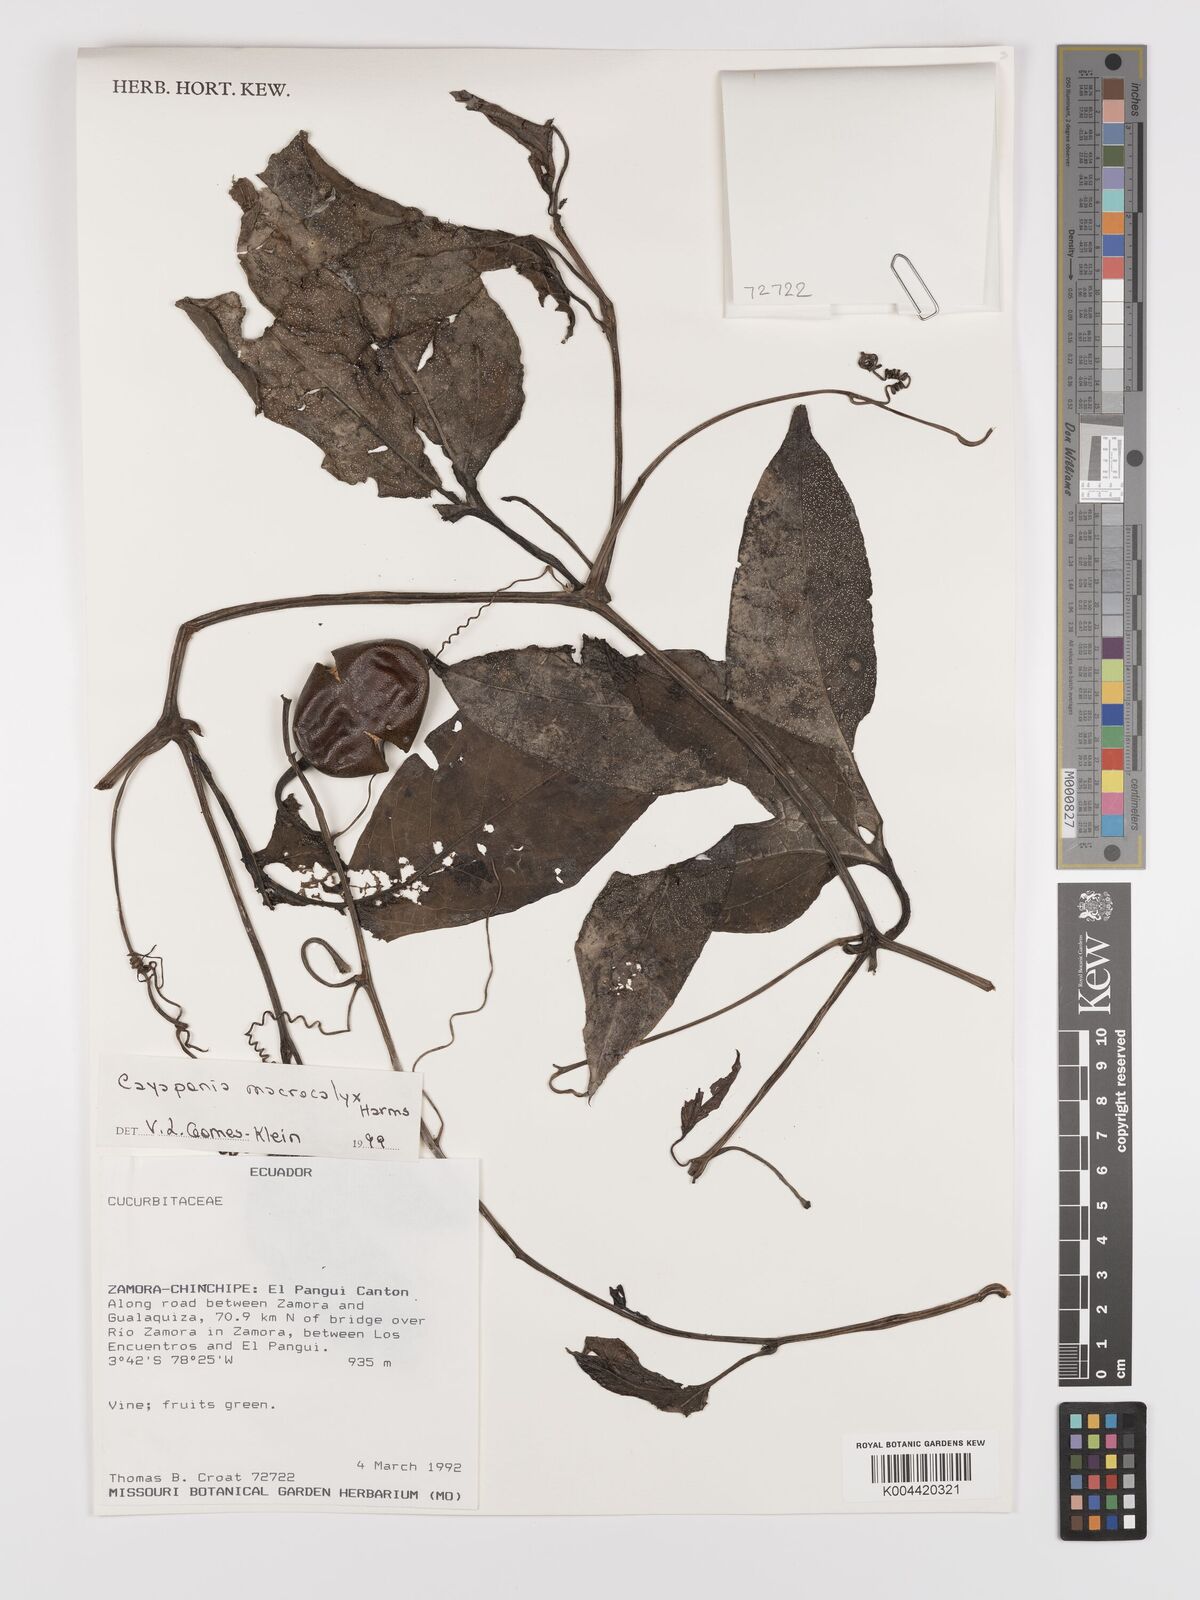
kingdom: Plantae
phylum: Tracheophyta
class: Magnoliopsida
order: Cucurbitales
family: Cucurbitaceae
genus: Cayaponia
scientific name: Cayaponia macrocalyx
